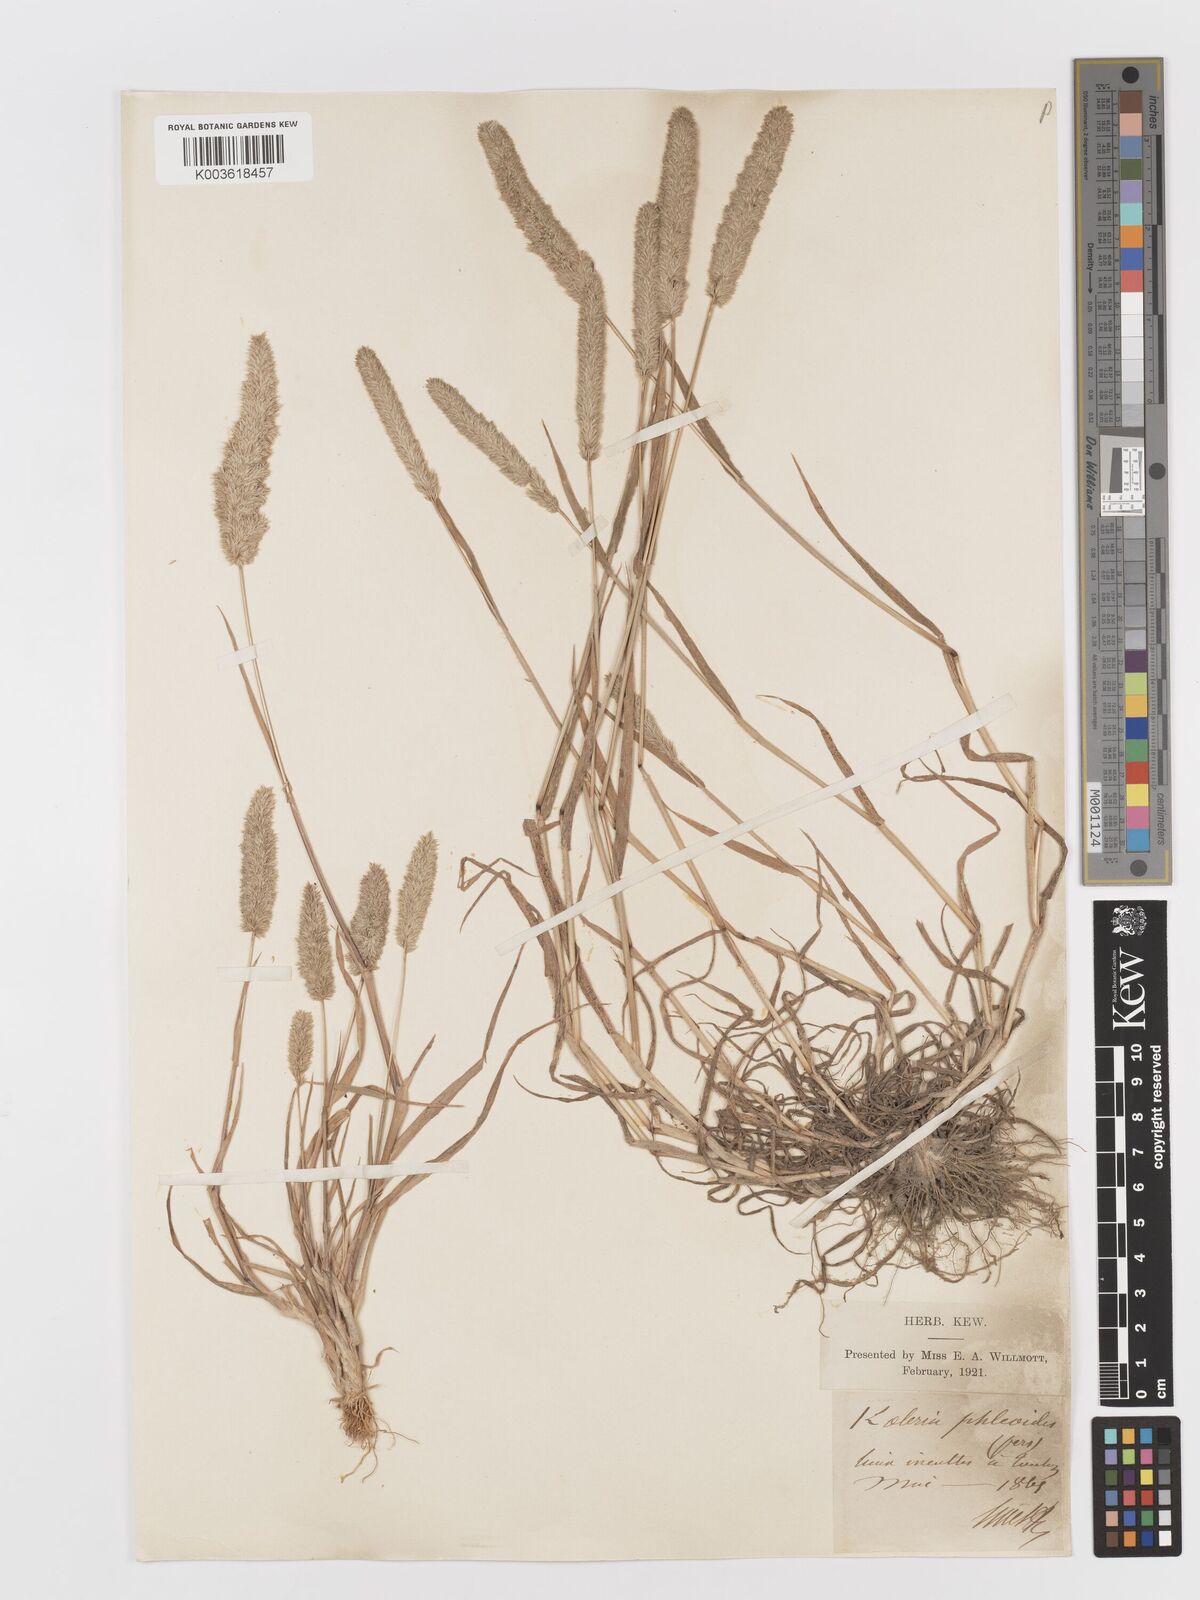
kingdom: Plantae
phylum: Tracheophyta
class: Liliopsida
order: Poales
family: Poaceae
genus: Rostraria
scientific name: Rostraria cristata
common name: Mediterranean hair-grass
